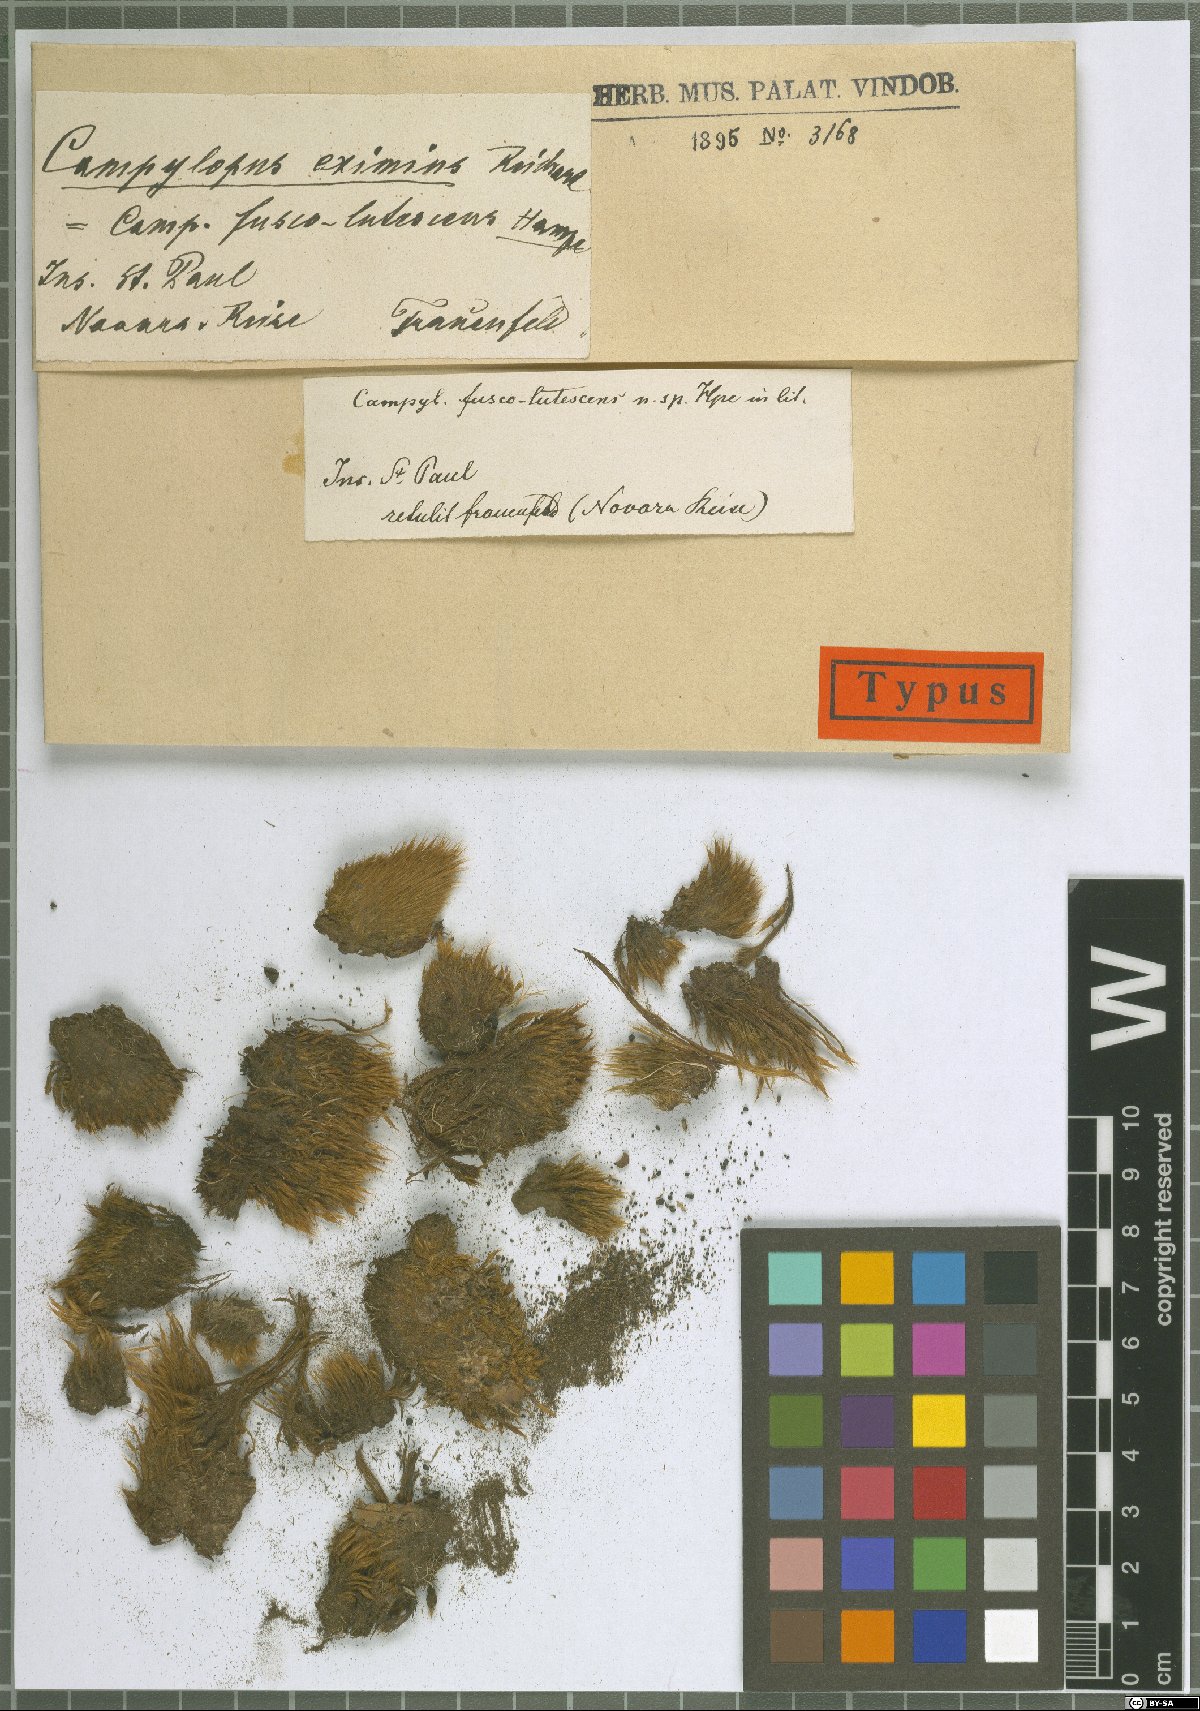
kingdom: Plantae
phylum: Bryophyta
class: Bryopsida
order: Dicranales
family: Leucobryaceae
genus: Campylopus
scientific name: Campylopus incrassatus
